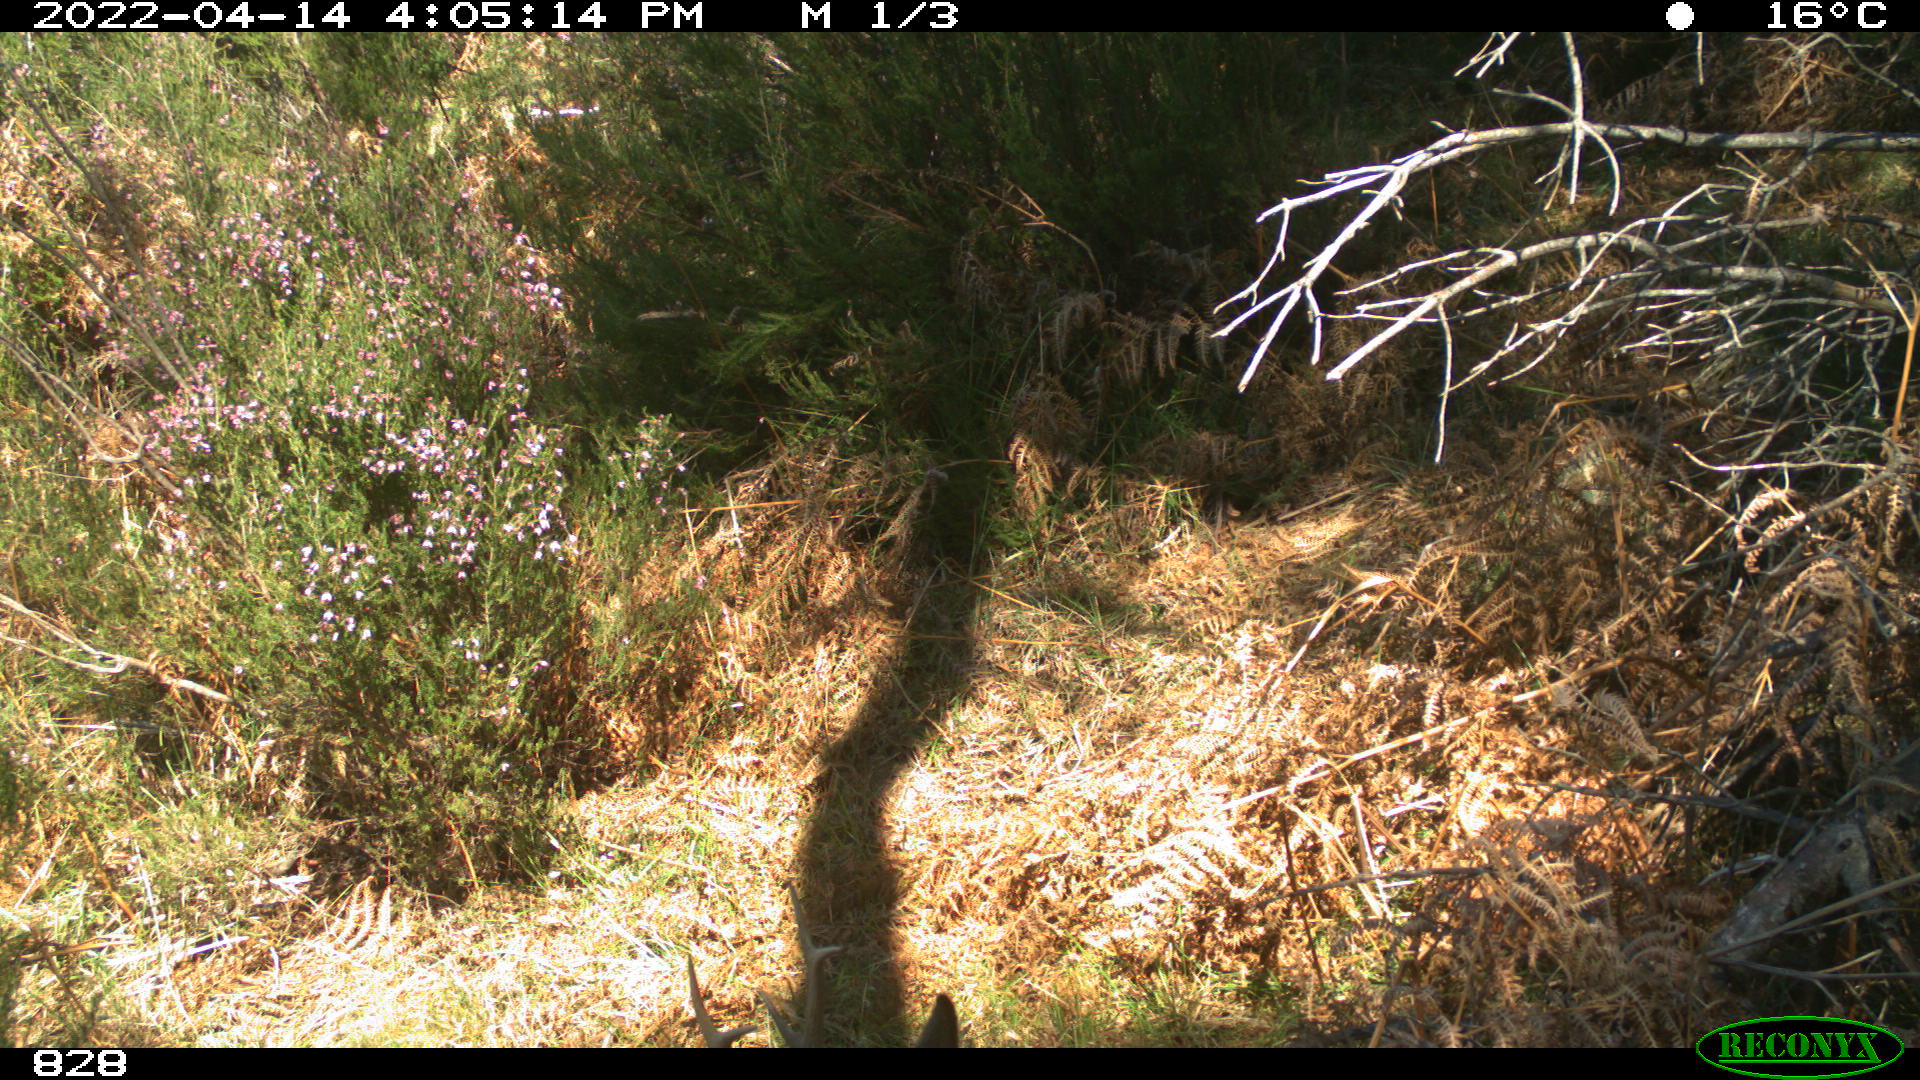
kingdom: Animalia
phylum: Chordata
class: Mammalia
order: Artiodactyla
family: Cervidae
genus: Capreolus
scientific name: Capreolus capreolus
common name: Western roe deer
